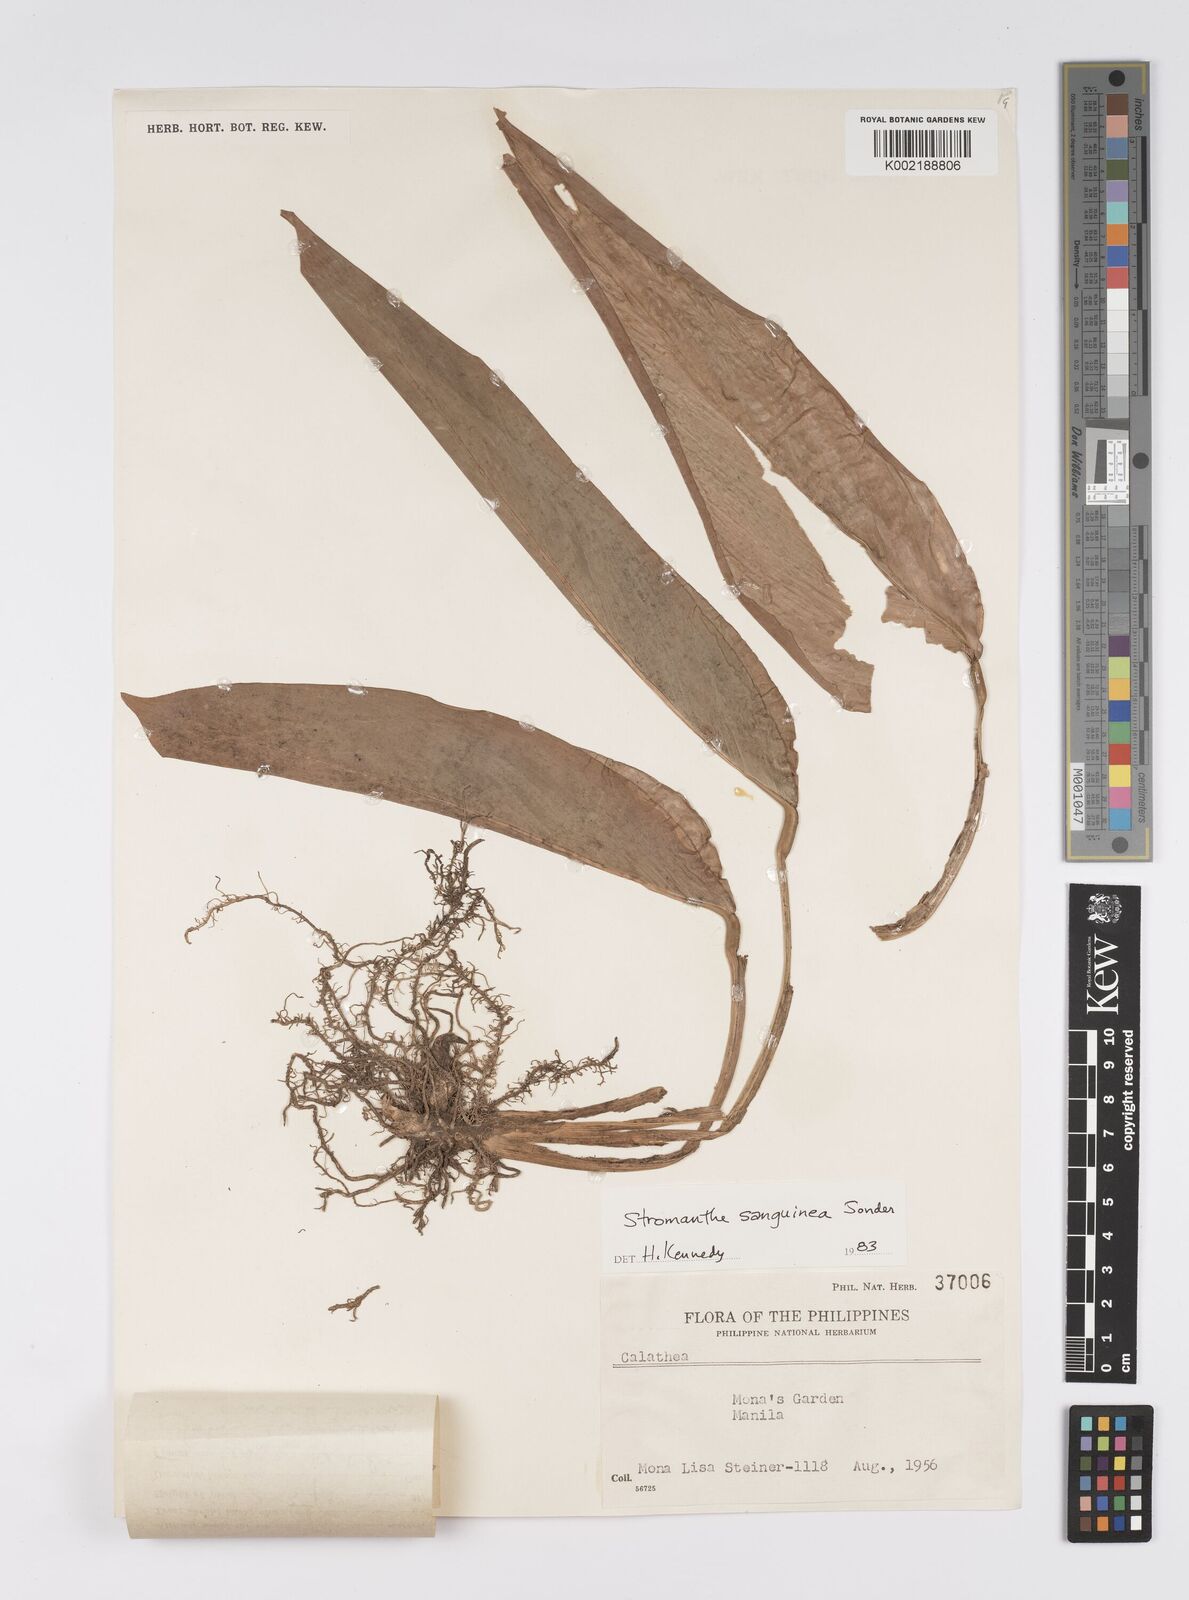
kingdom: Plantae
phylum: Tracheophyta
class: Liliopsida
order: Zingiberales
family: Marantaceae
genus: Stromanthe
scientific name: Stromanthe thalia
